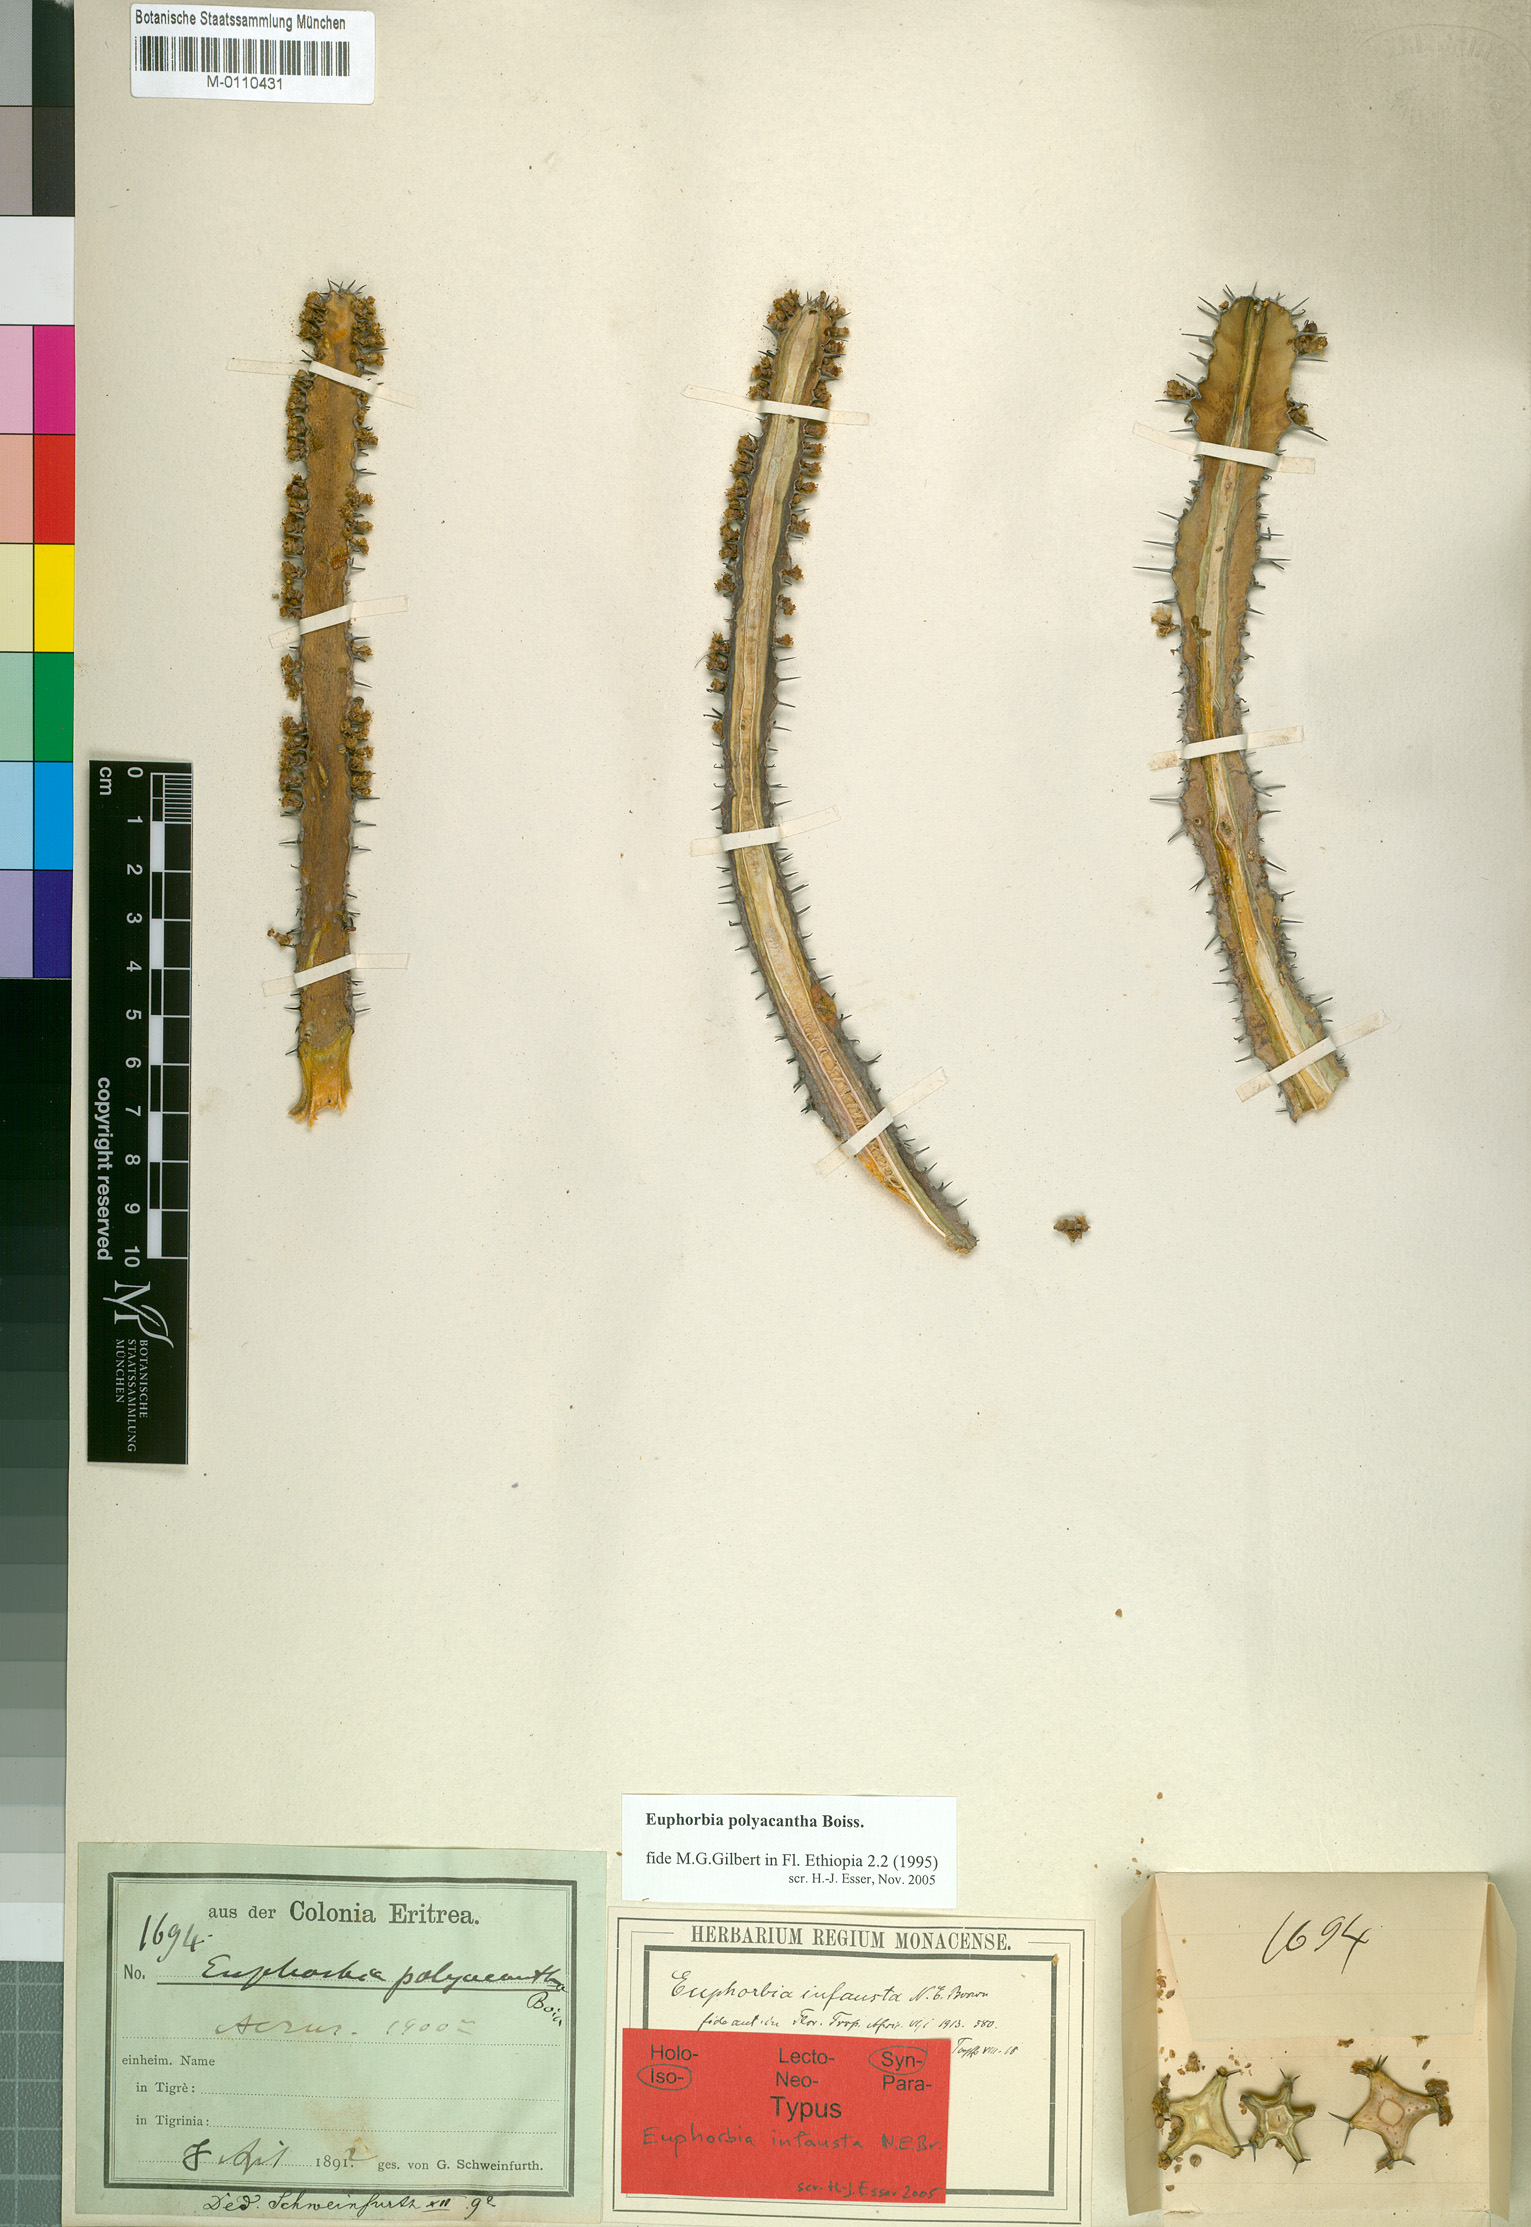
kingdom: Plantae
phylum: Tracheophyta
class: Magnoliopsida
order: Malpighiales
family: Euphorbiaceae
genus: Euphorbia
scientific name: Euphorbia polyacantha
